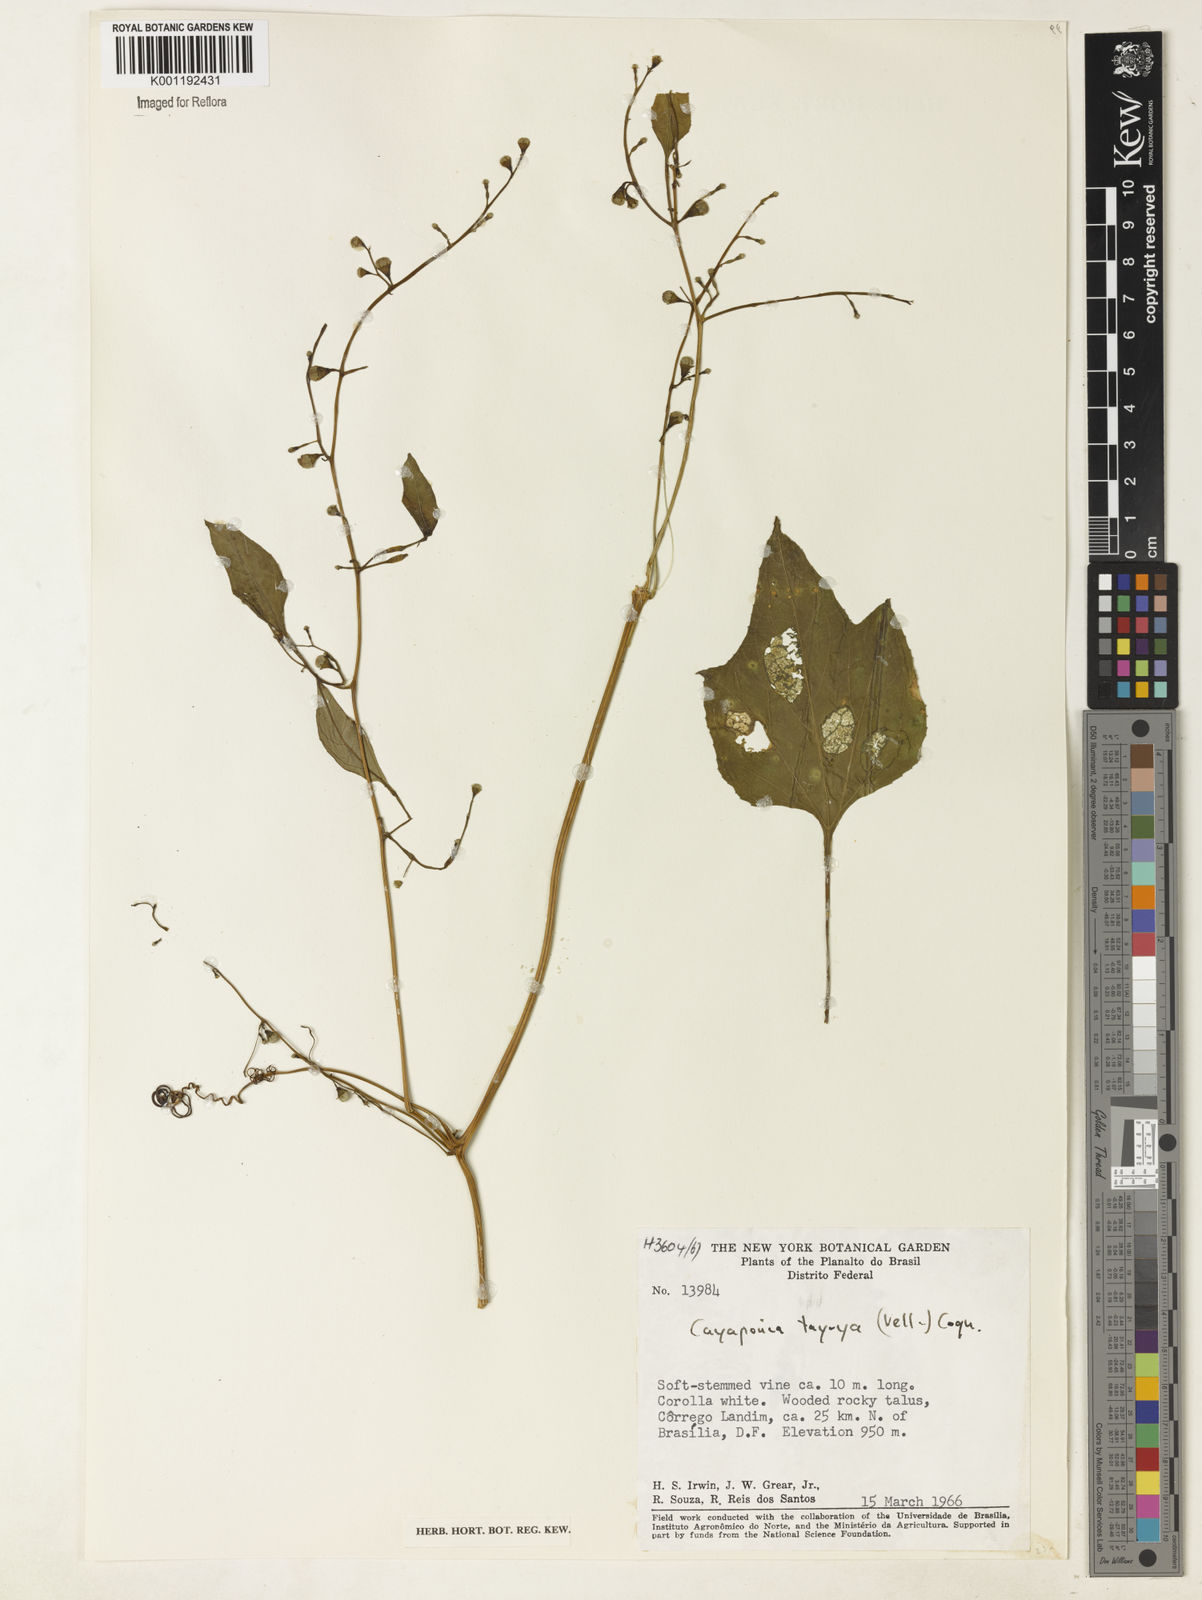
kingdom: Plantae
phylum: Tracheophyta
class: Magnoliopsida
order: Cucurbitales
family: Cucurbitaceae
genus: Cayaponia
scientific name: Cayaponia tayuya
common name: Tayuya
